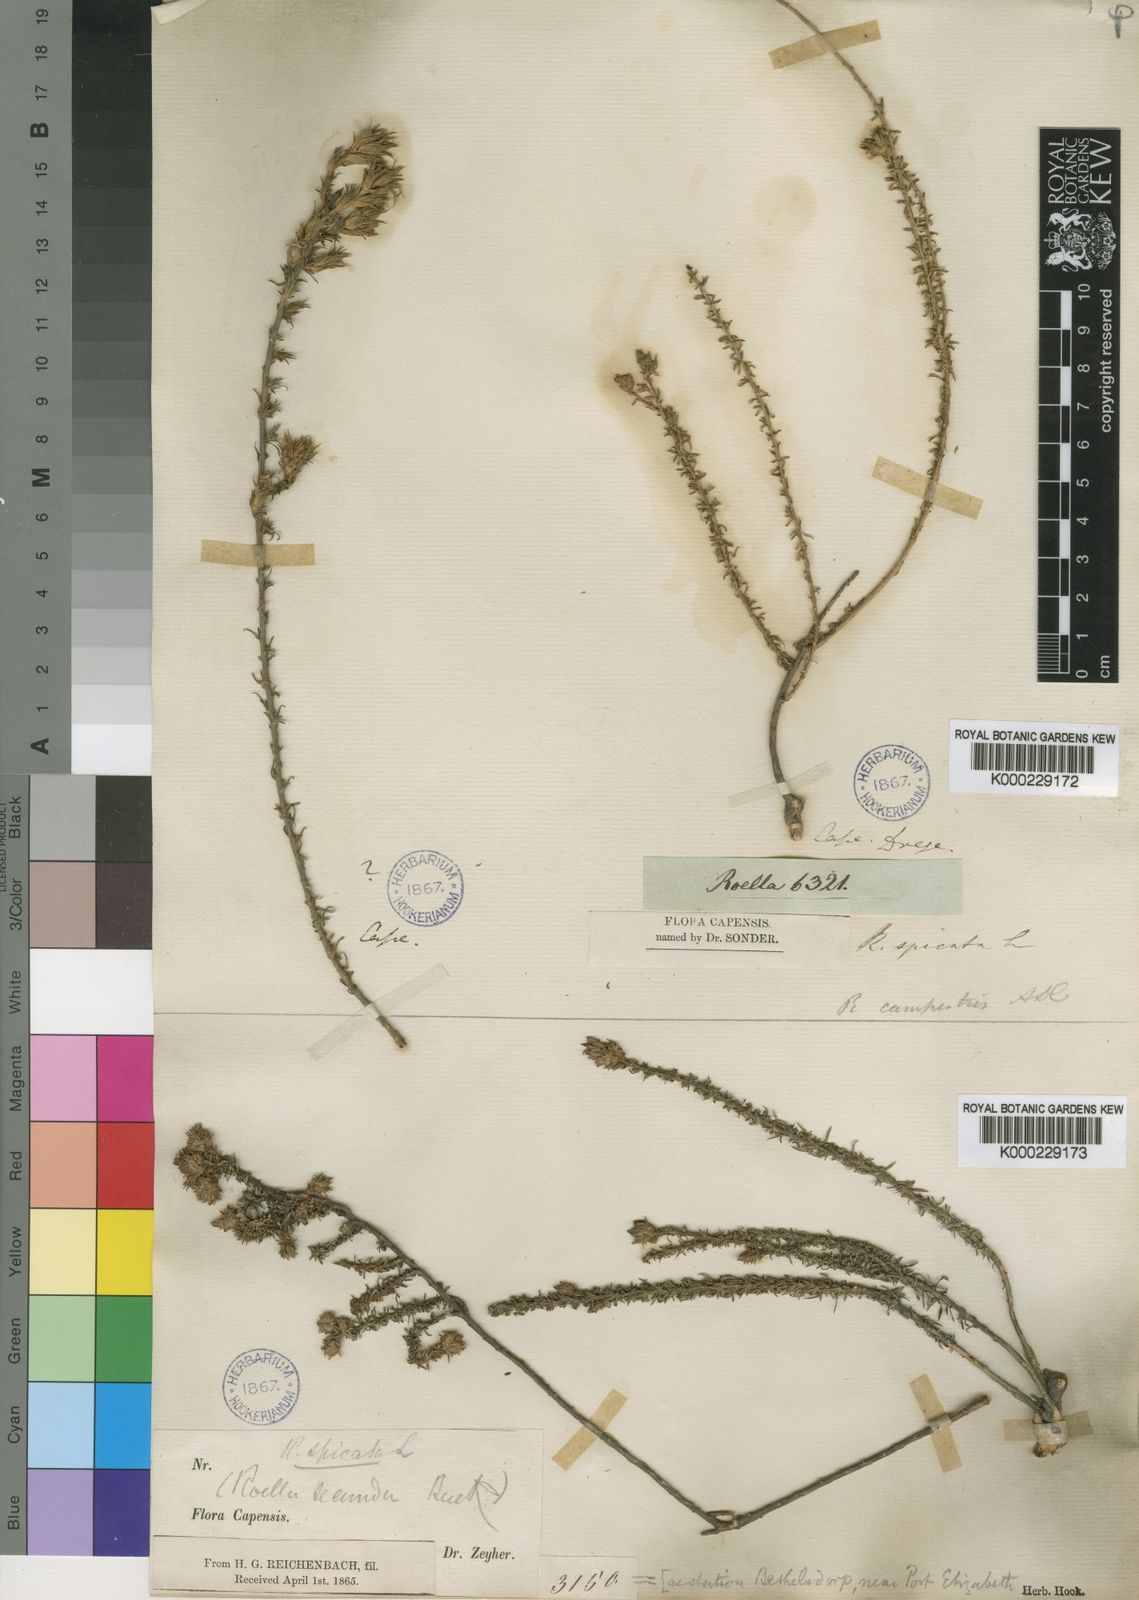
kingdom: Plantae
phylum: Tracheophyta
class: Magnoliopsida
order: Asterales
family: Campanulaceae
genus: Roella
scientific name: Roella spicata
